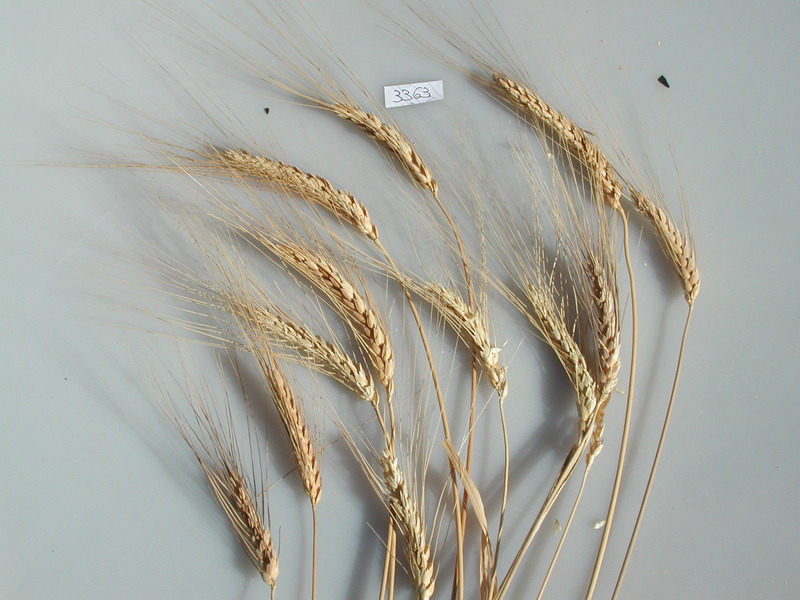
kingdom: Plantae
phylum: Tracheophyta
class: Liliopsida
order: Poales
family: Poaceae
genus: Triticum
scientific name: Triticum turgidum
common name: Wheat
